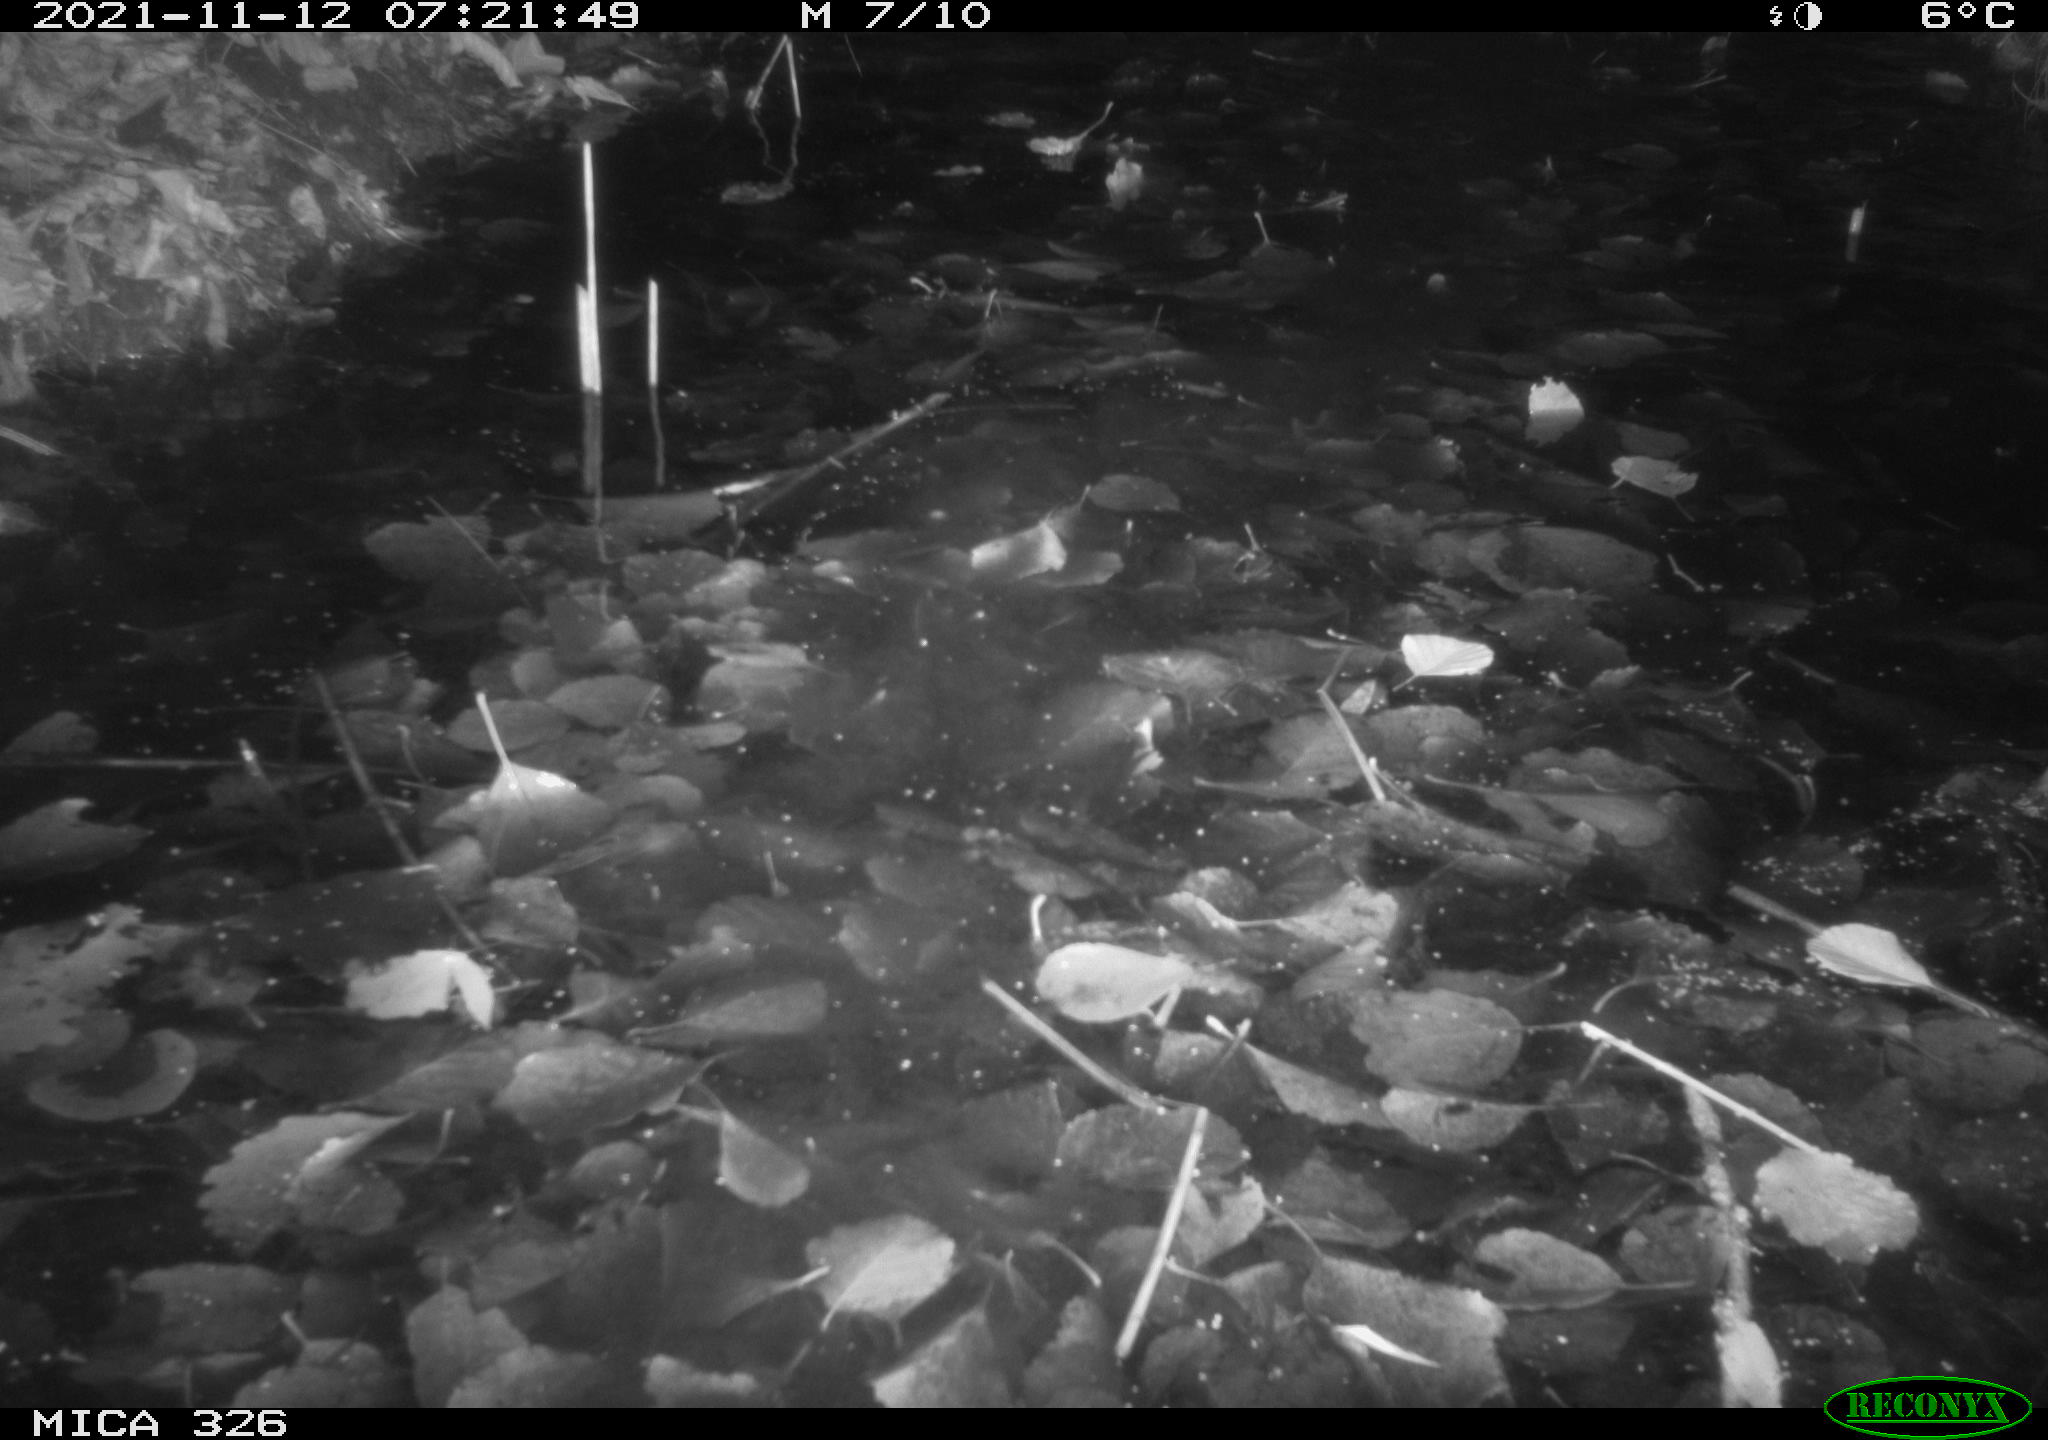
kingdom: Animalia
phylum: Chordata
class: Mammalia
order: Rodentia
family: Myocastoridae
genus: Myocastor
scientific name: Myocastor coypus
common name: Coypu
